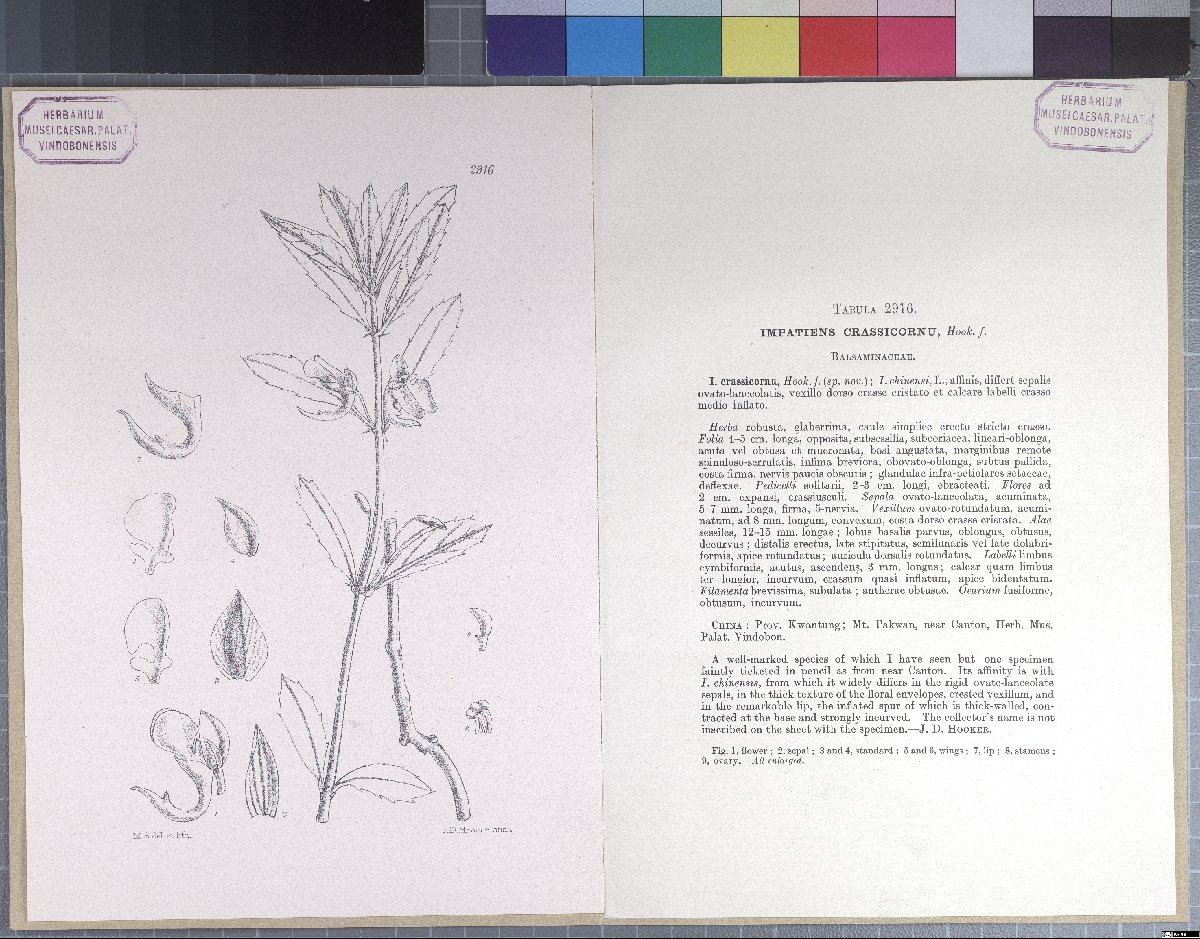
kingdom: Plantae
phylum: Tracheophyta
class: Magnoliopsida
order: Ericales
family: Balsaminaceae
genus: Impatiens
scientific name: Impatiens chinensis
